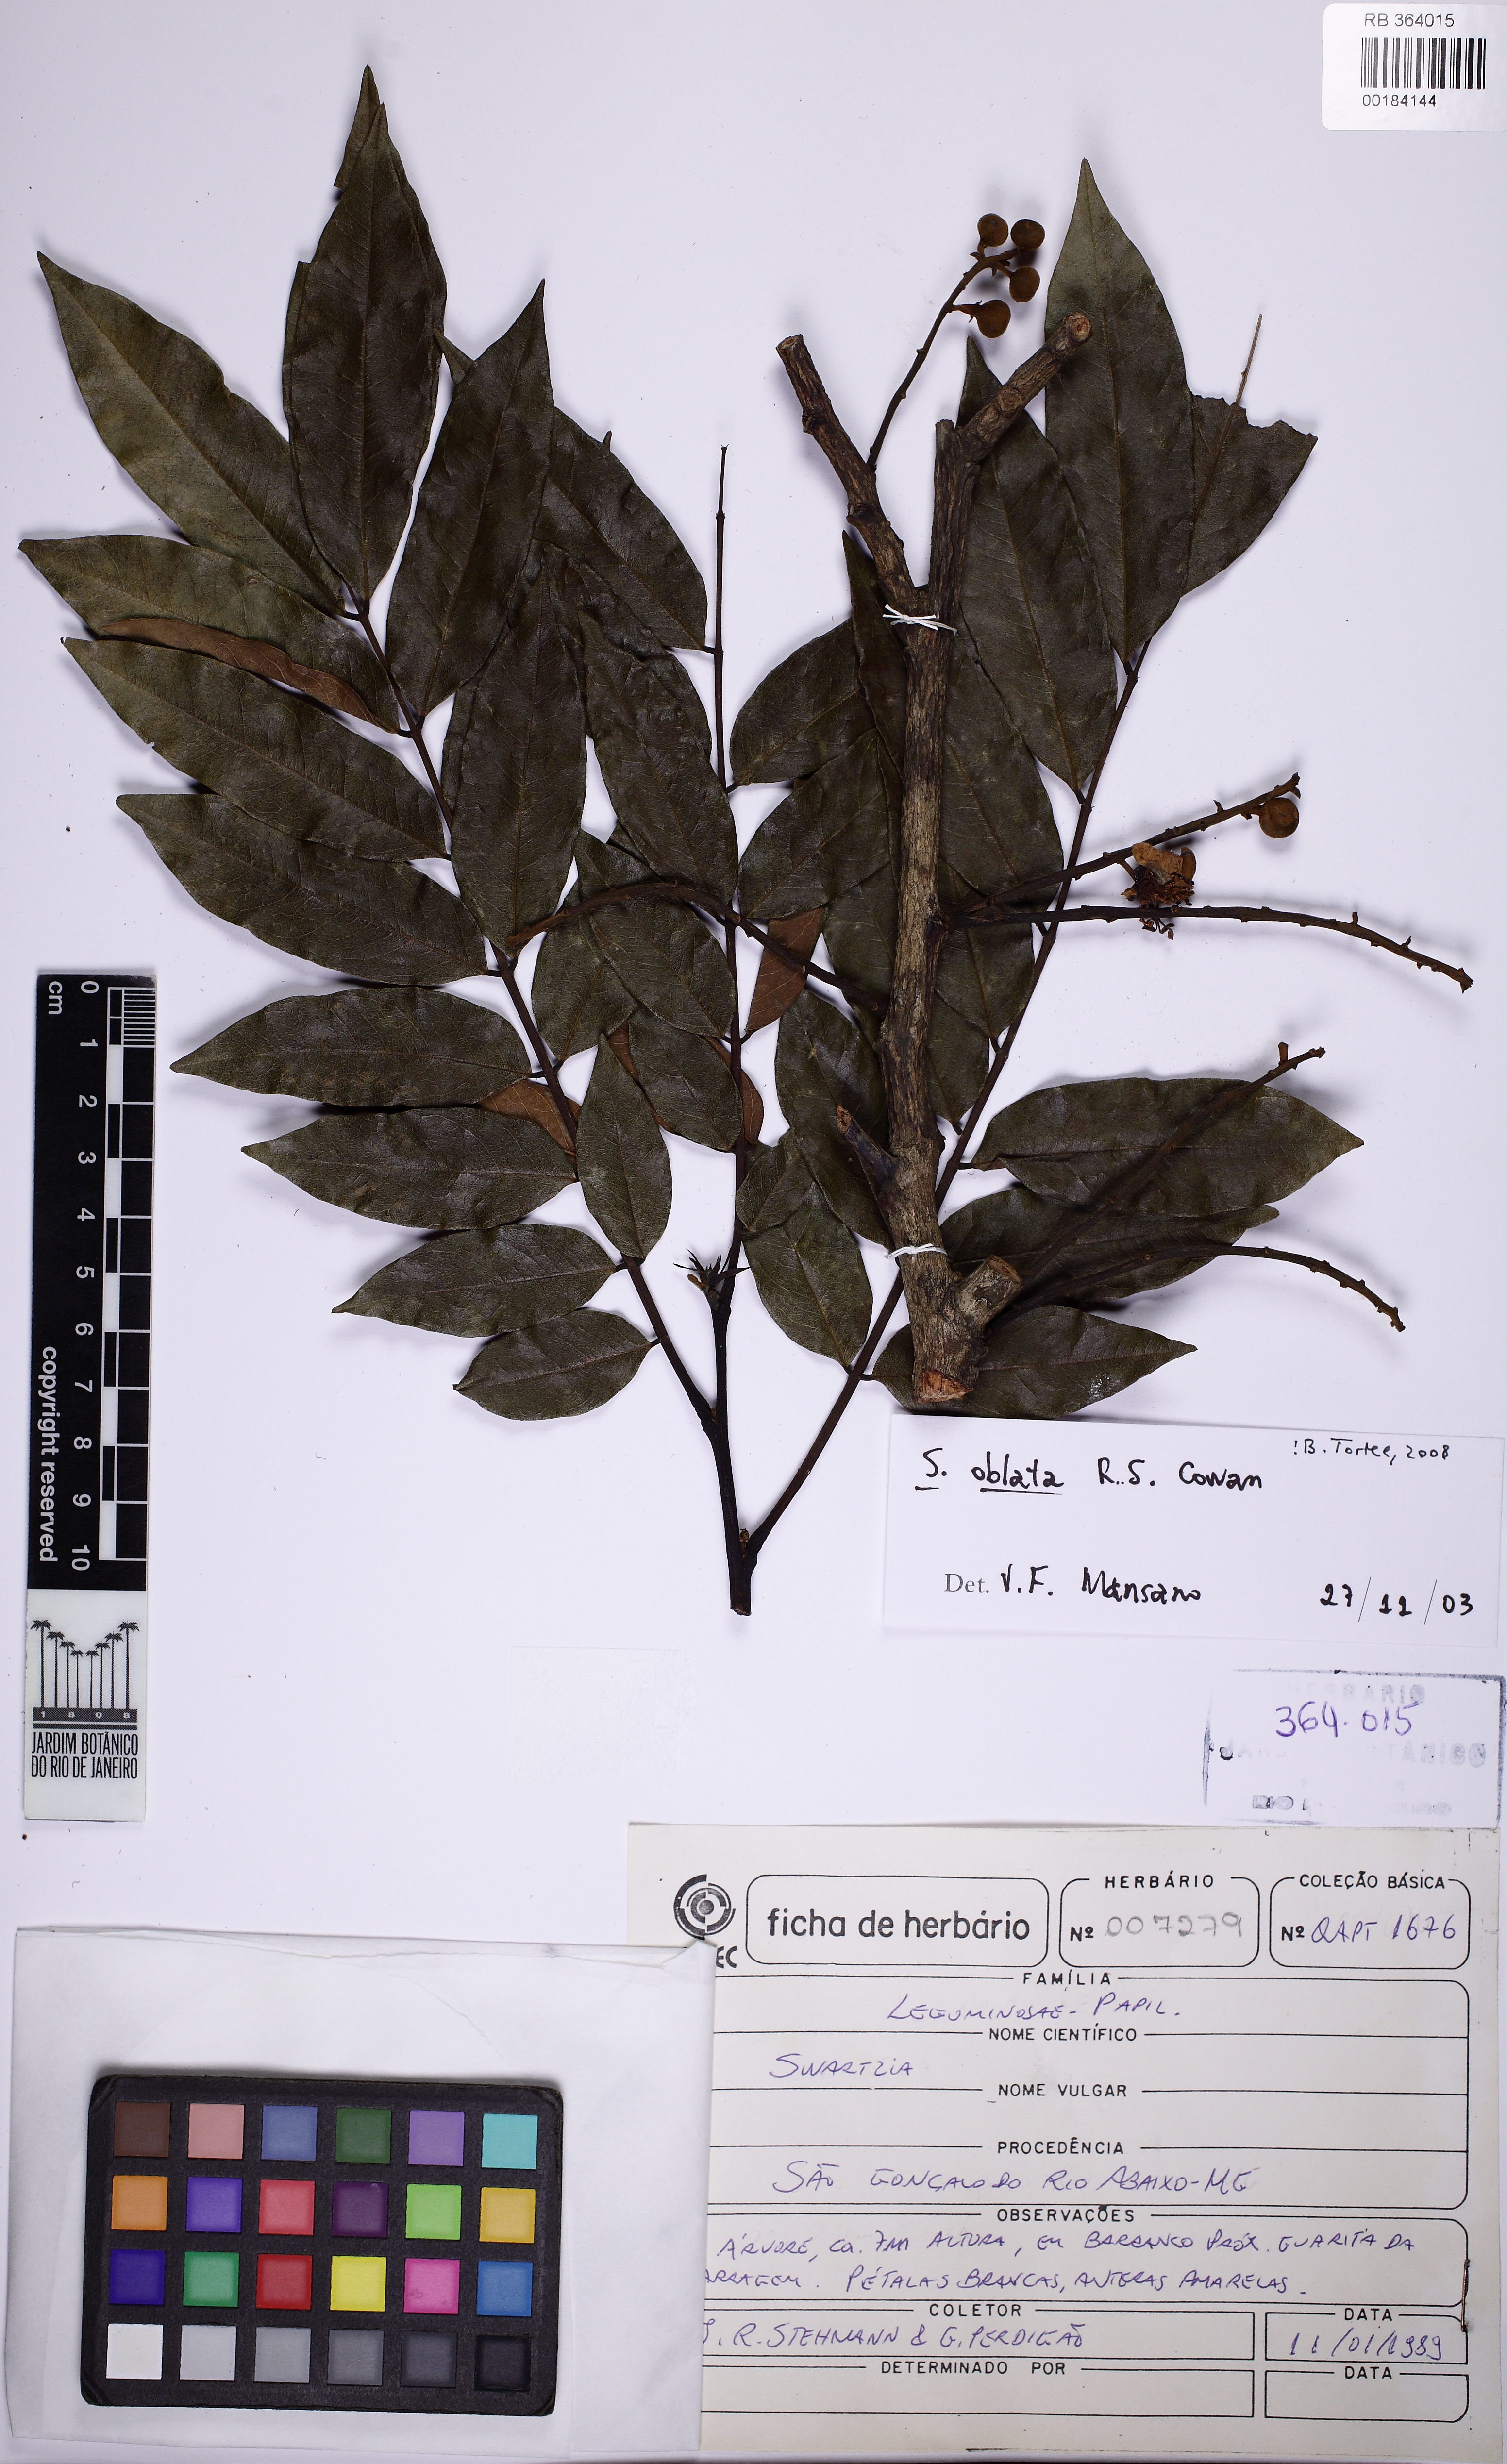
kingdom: Plantae
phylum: Tracheophyta
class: Magnoliopsida
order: Fabales
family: Fabaceae
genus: Swartzia
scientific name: Swartzia oblata
